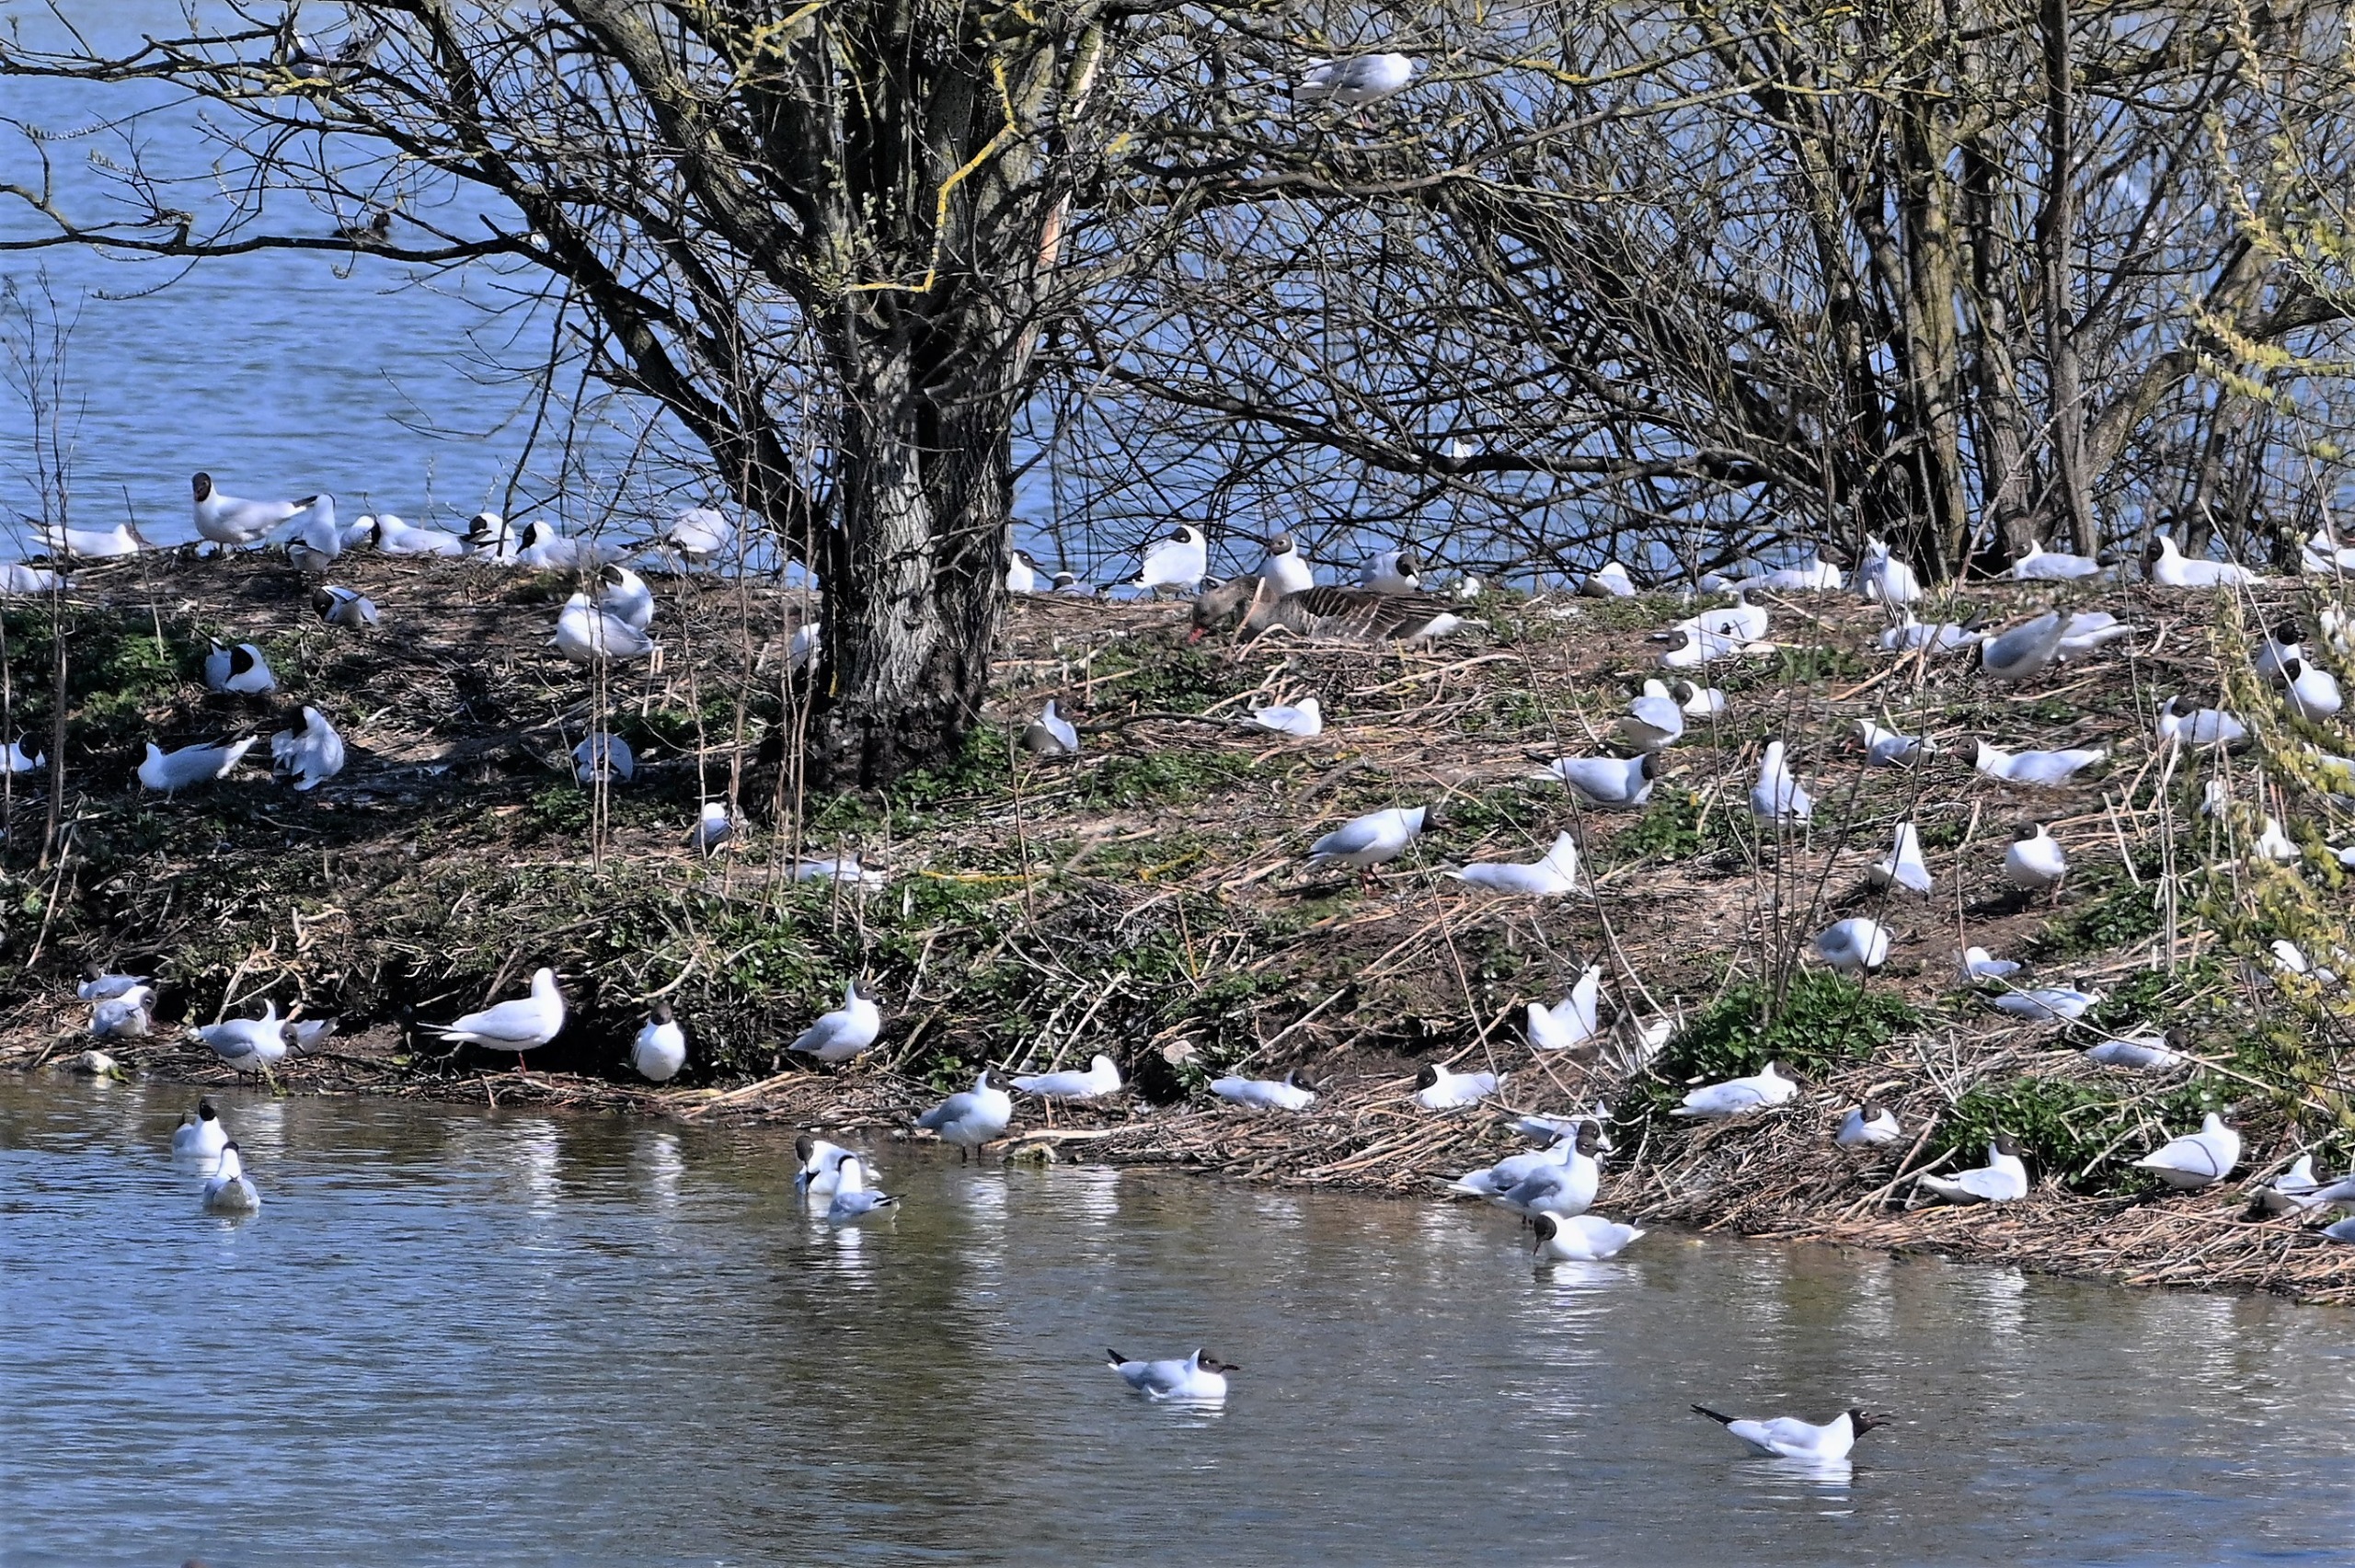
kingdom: Animalia
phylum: Chordata
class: Aves
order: Charadriiformes
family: Laridae
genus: Chroicocephalus
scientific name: Chroicocephalus ridibundus
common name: Hættemåge
